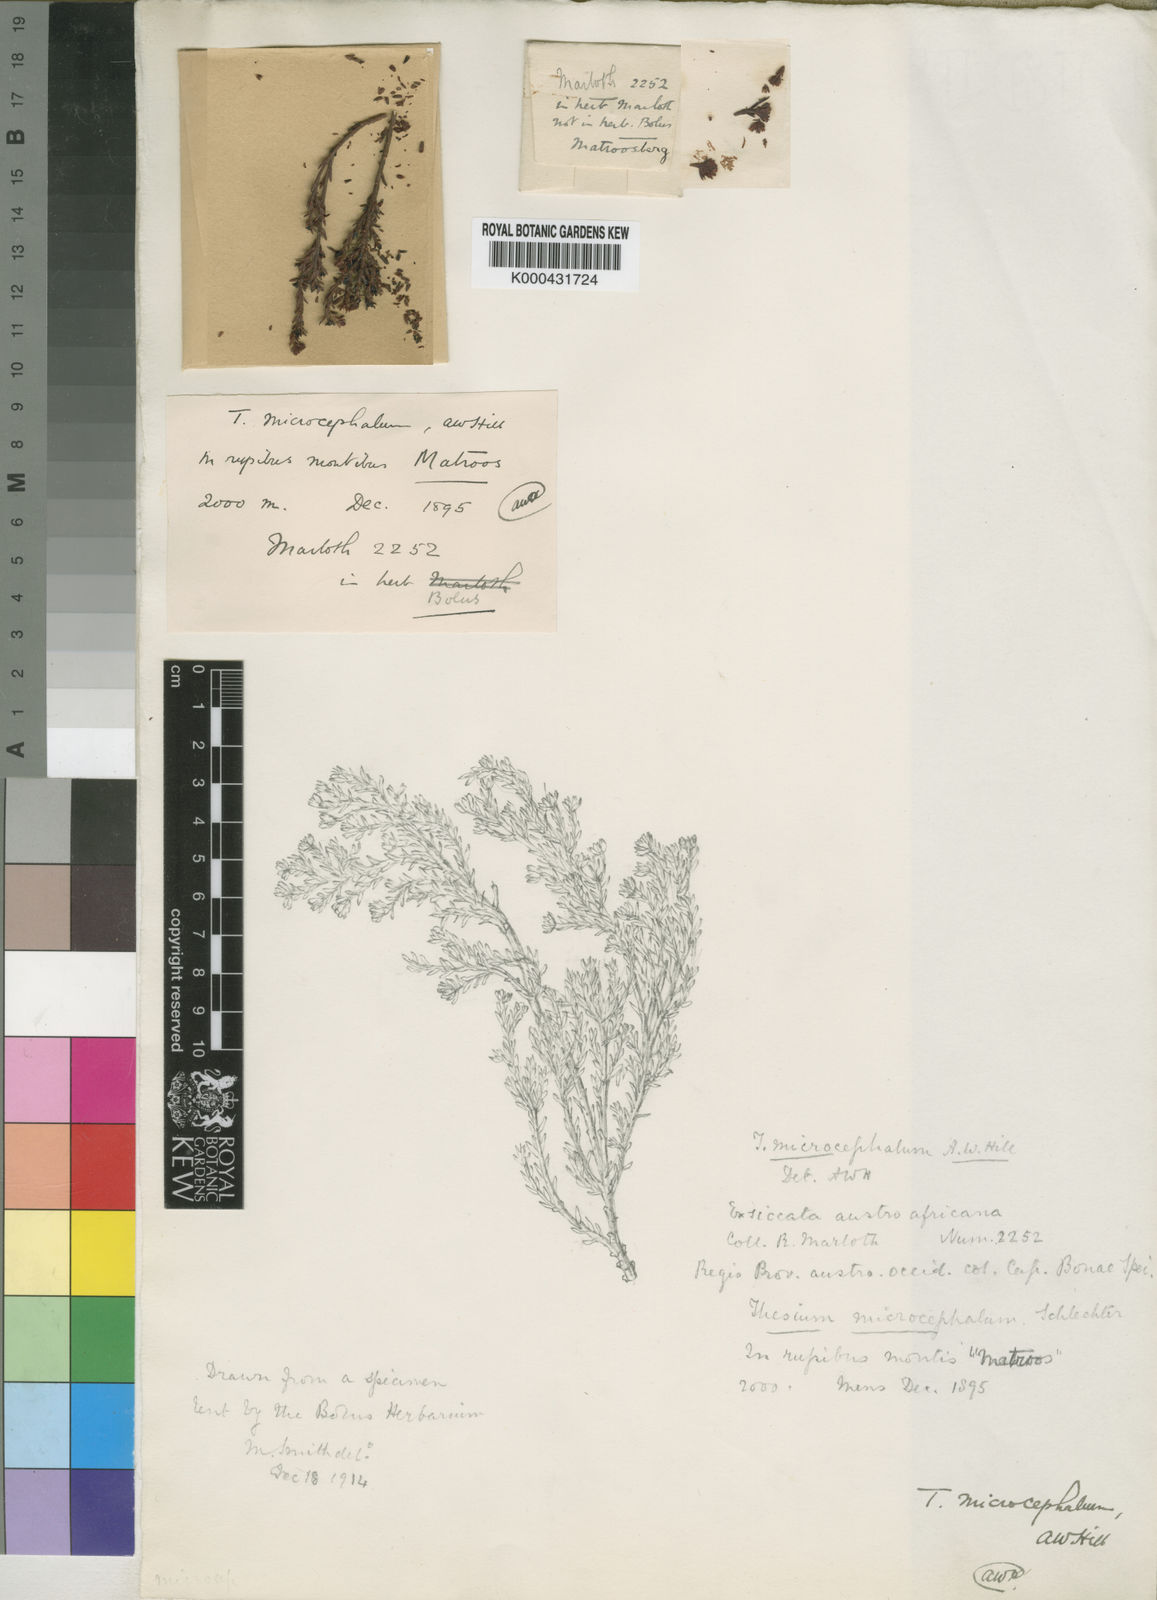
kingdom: Plantae
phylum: Tracheophyta
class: Magnoliopsida
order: Santalales
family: Thesiaceae
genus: Thesium
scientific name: Thesium microcephalum
